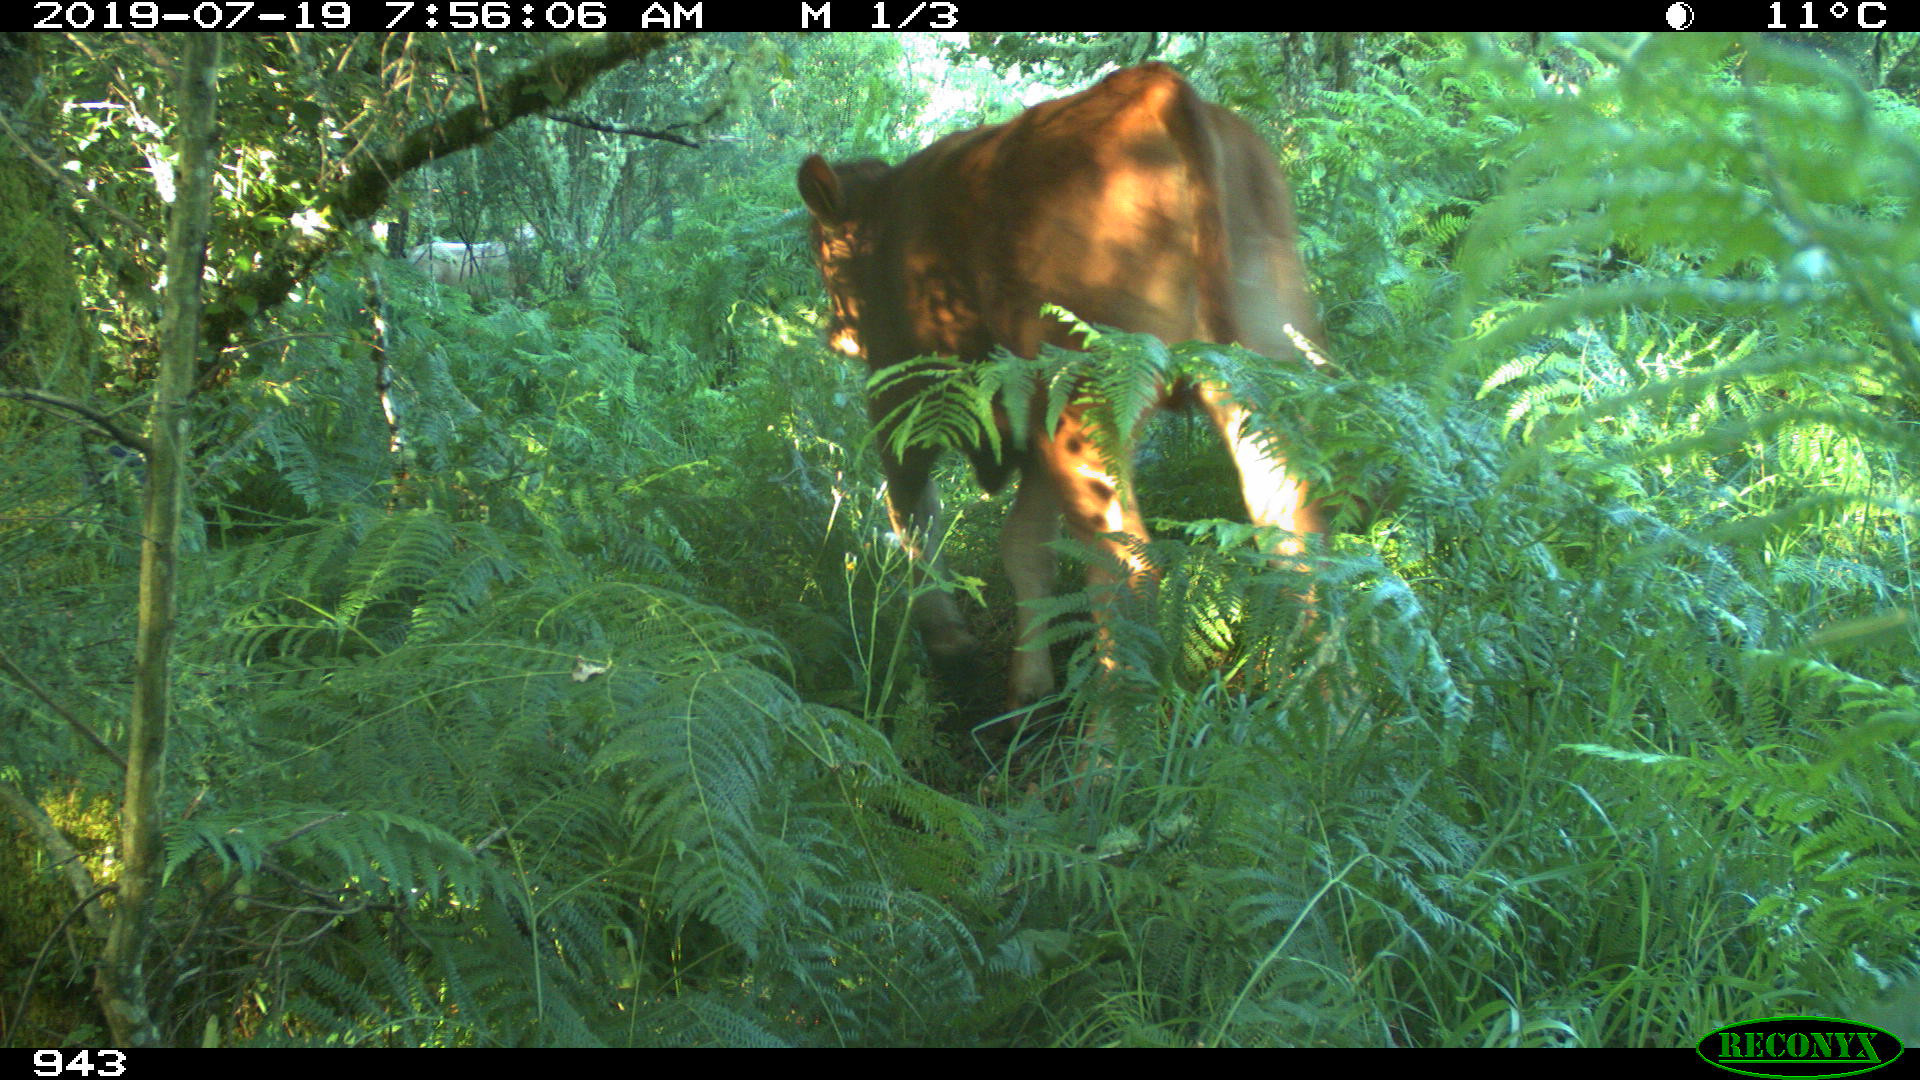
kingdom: Animalia
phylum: Chordata
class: Mammalia
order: Artiodactyla
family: Bovidae
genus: Bos
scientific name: Bos taurus
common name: Domesticated cattle
